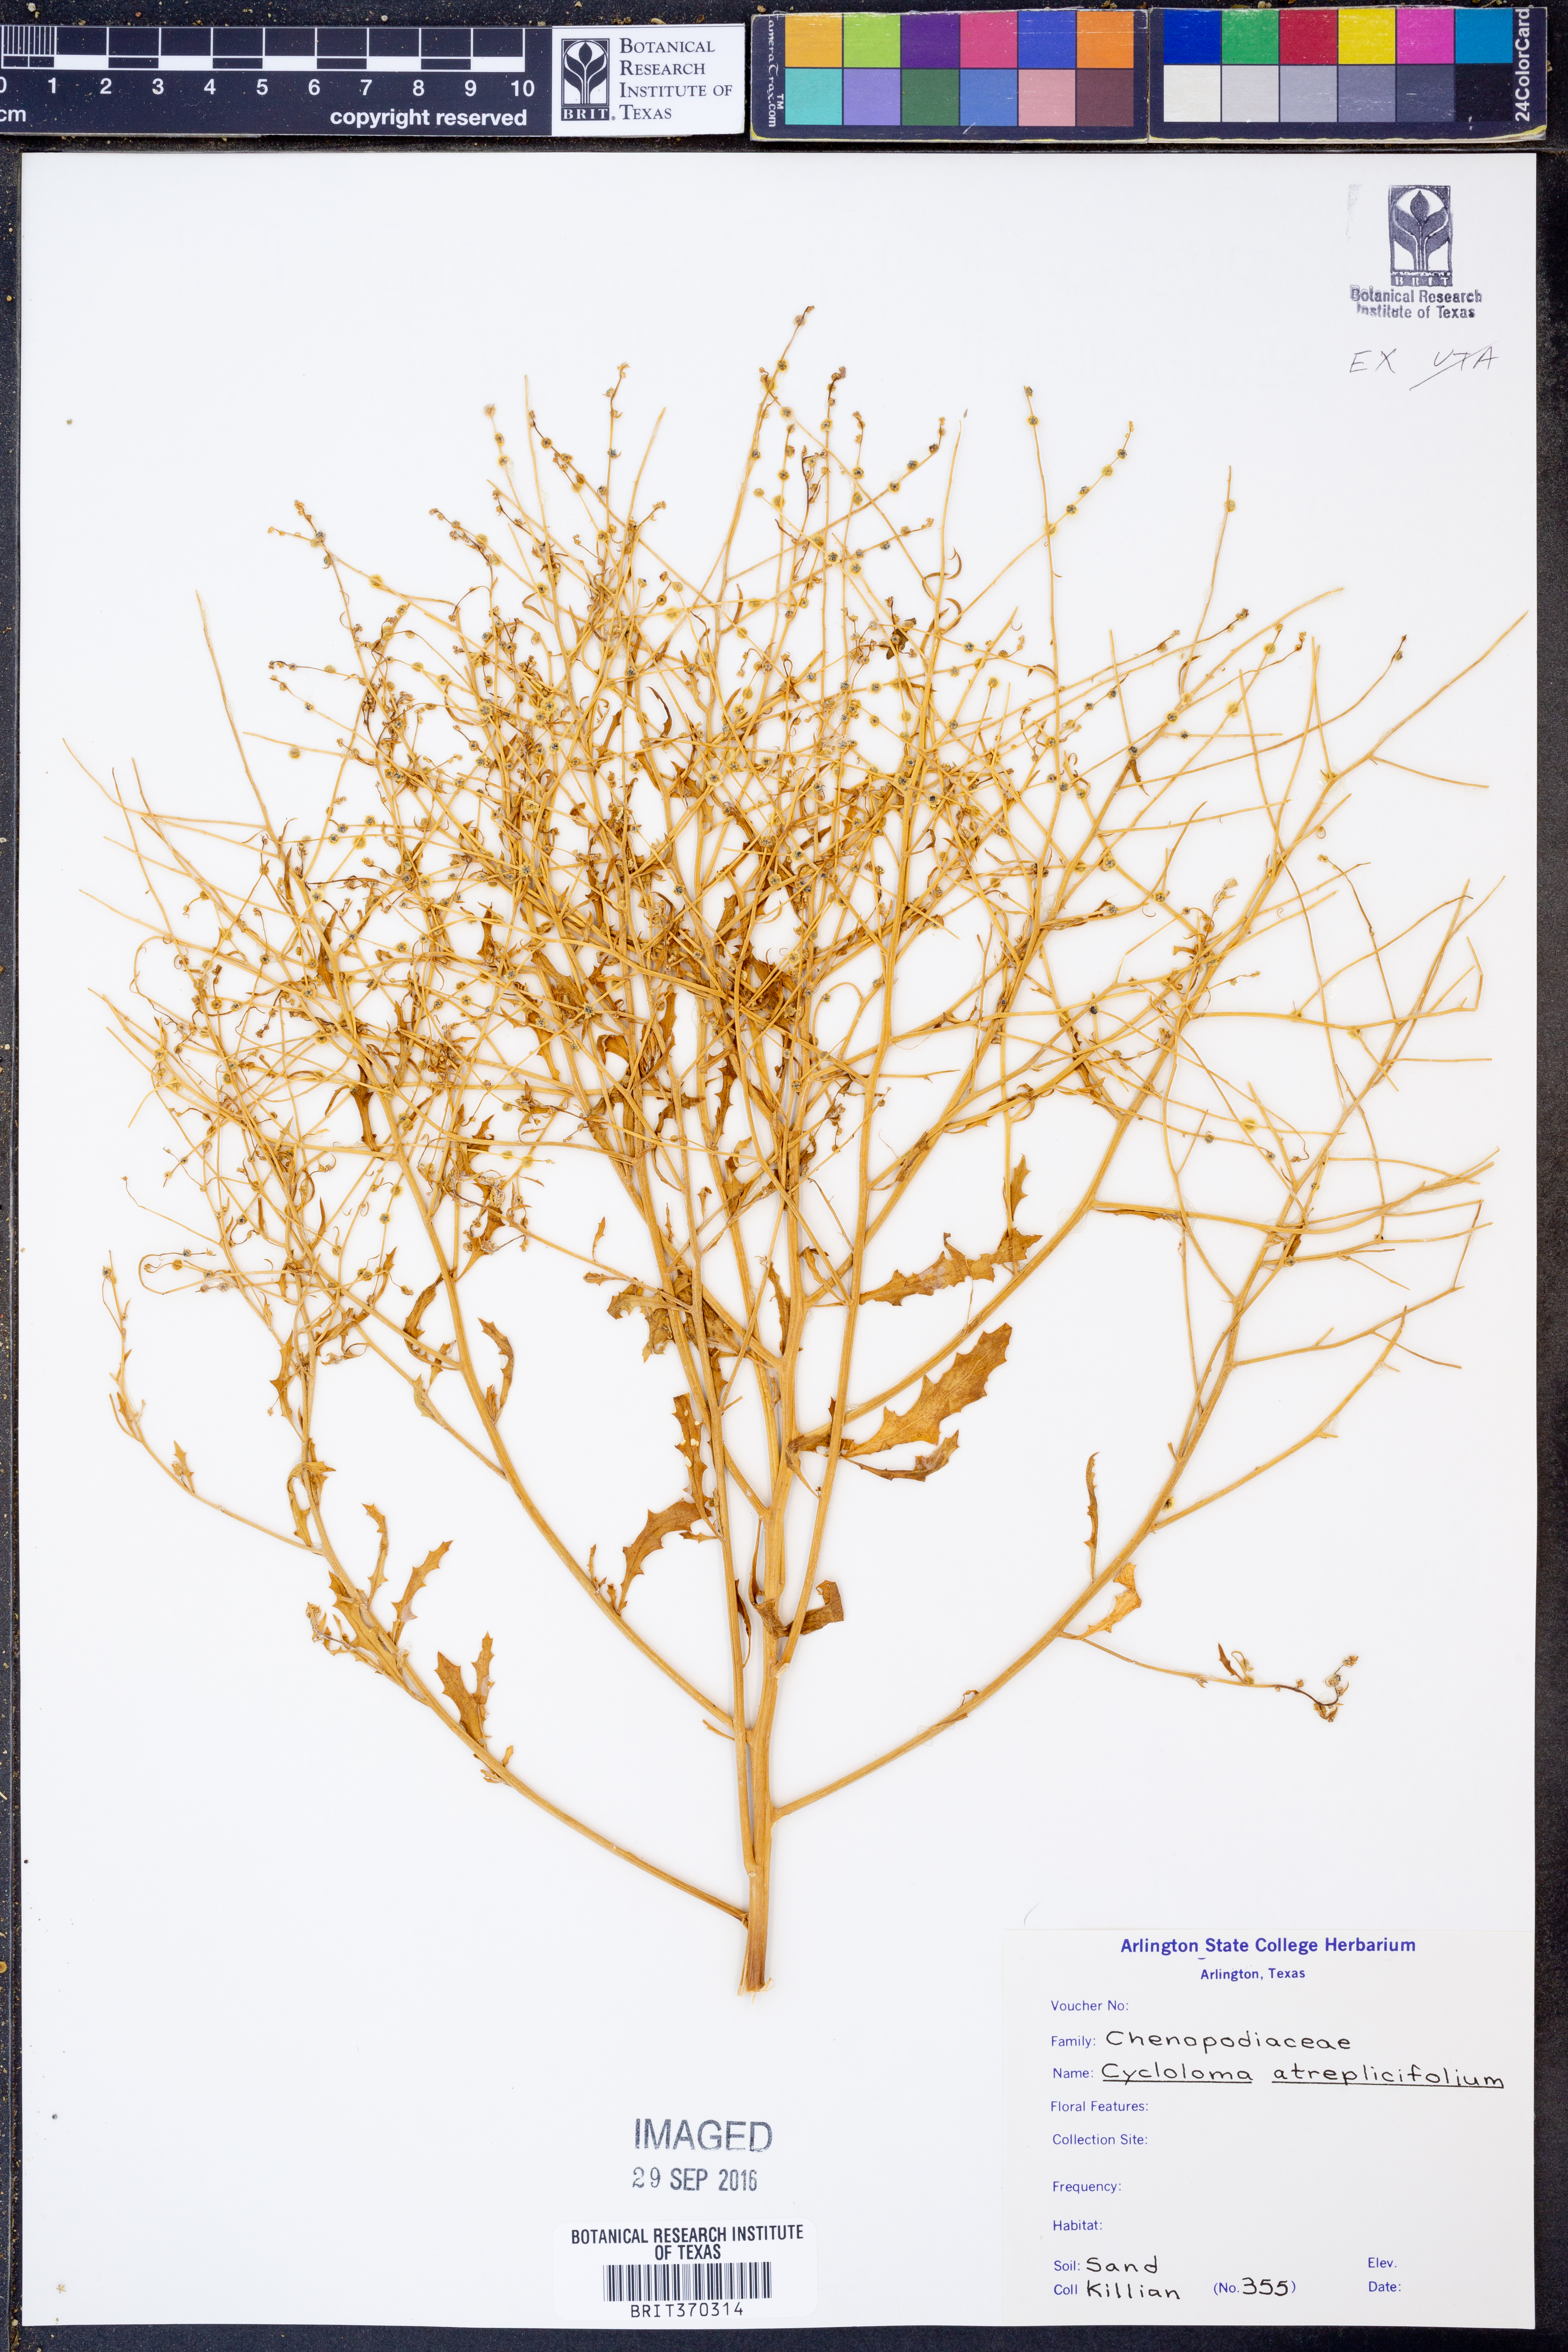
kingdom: Plantae
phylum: Tracheophyta
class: Magnoliopsida
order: Caryophyllales
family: Amaranthaceae
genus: Dysphania
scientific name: Dysphania atriplicifolia
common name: Plains tumbleweed
